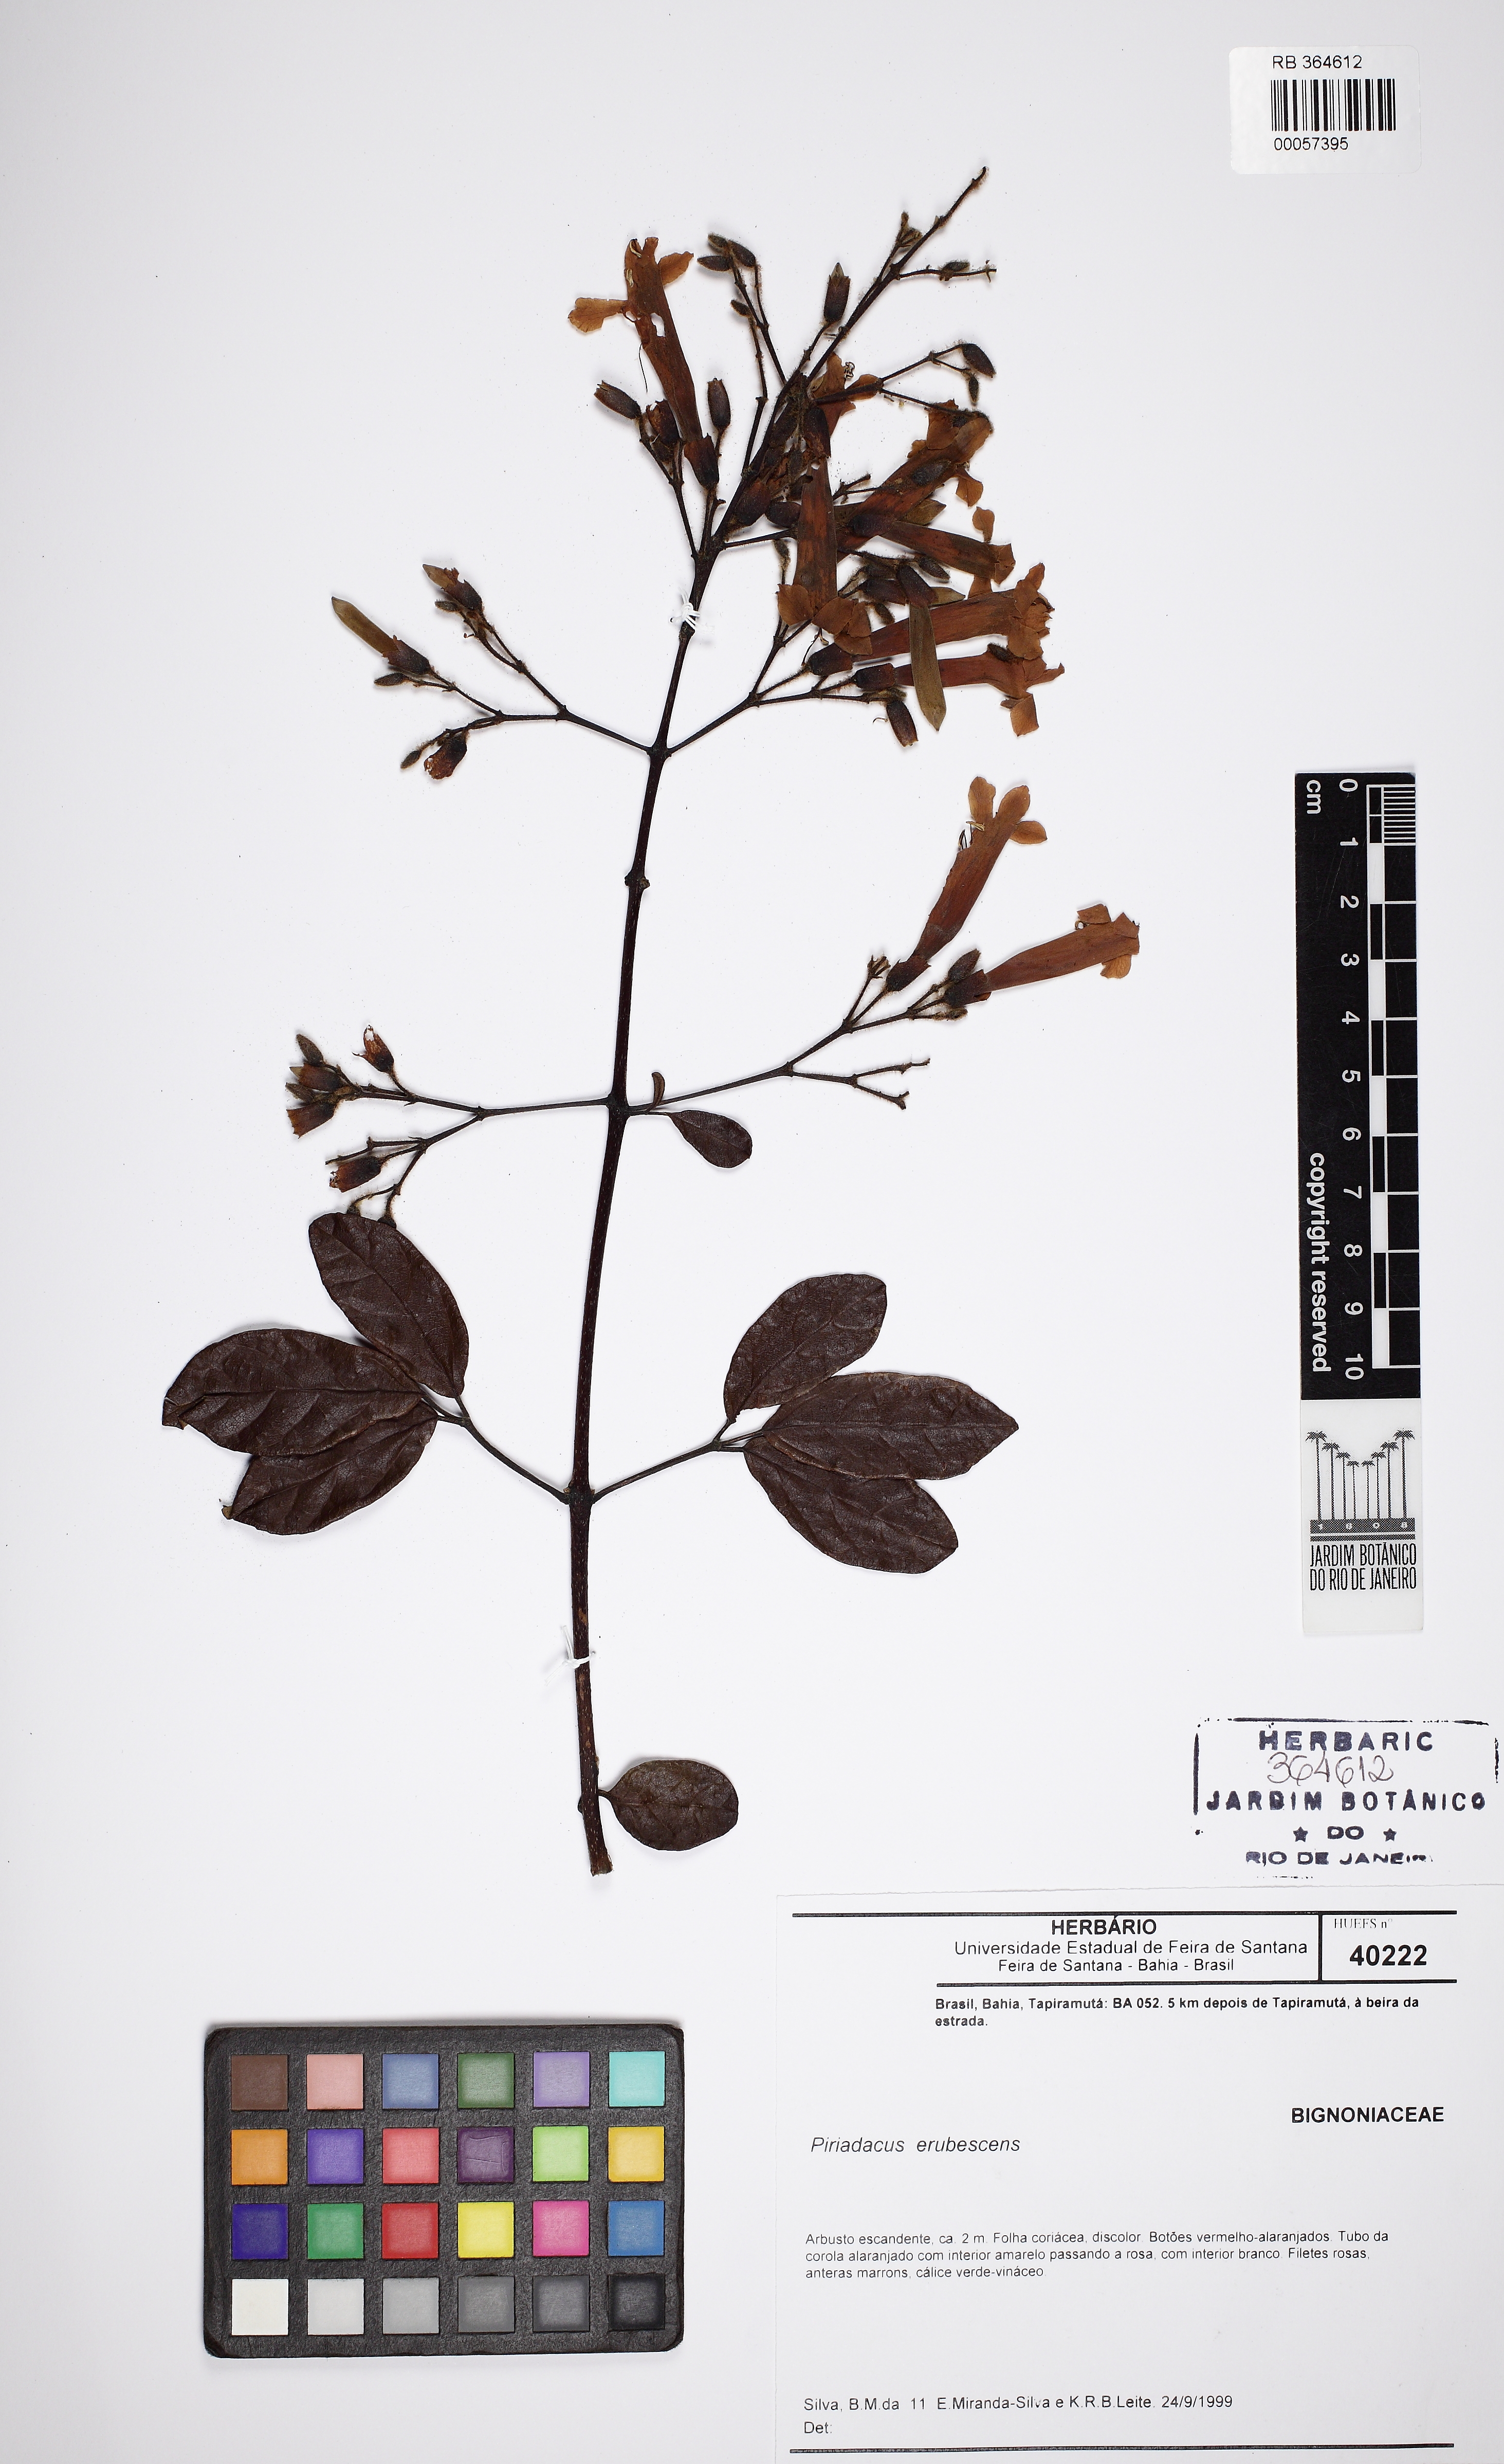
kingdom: Plantae
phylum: Tracheophyta
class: Magnoliopsida
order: Lamiales
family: Bignoniaceae
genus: Fridericia
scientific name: Fridericia erubescens
